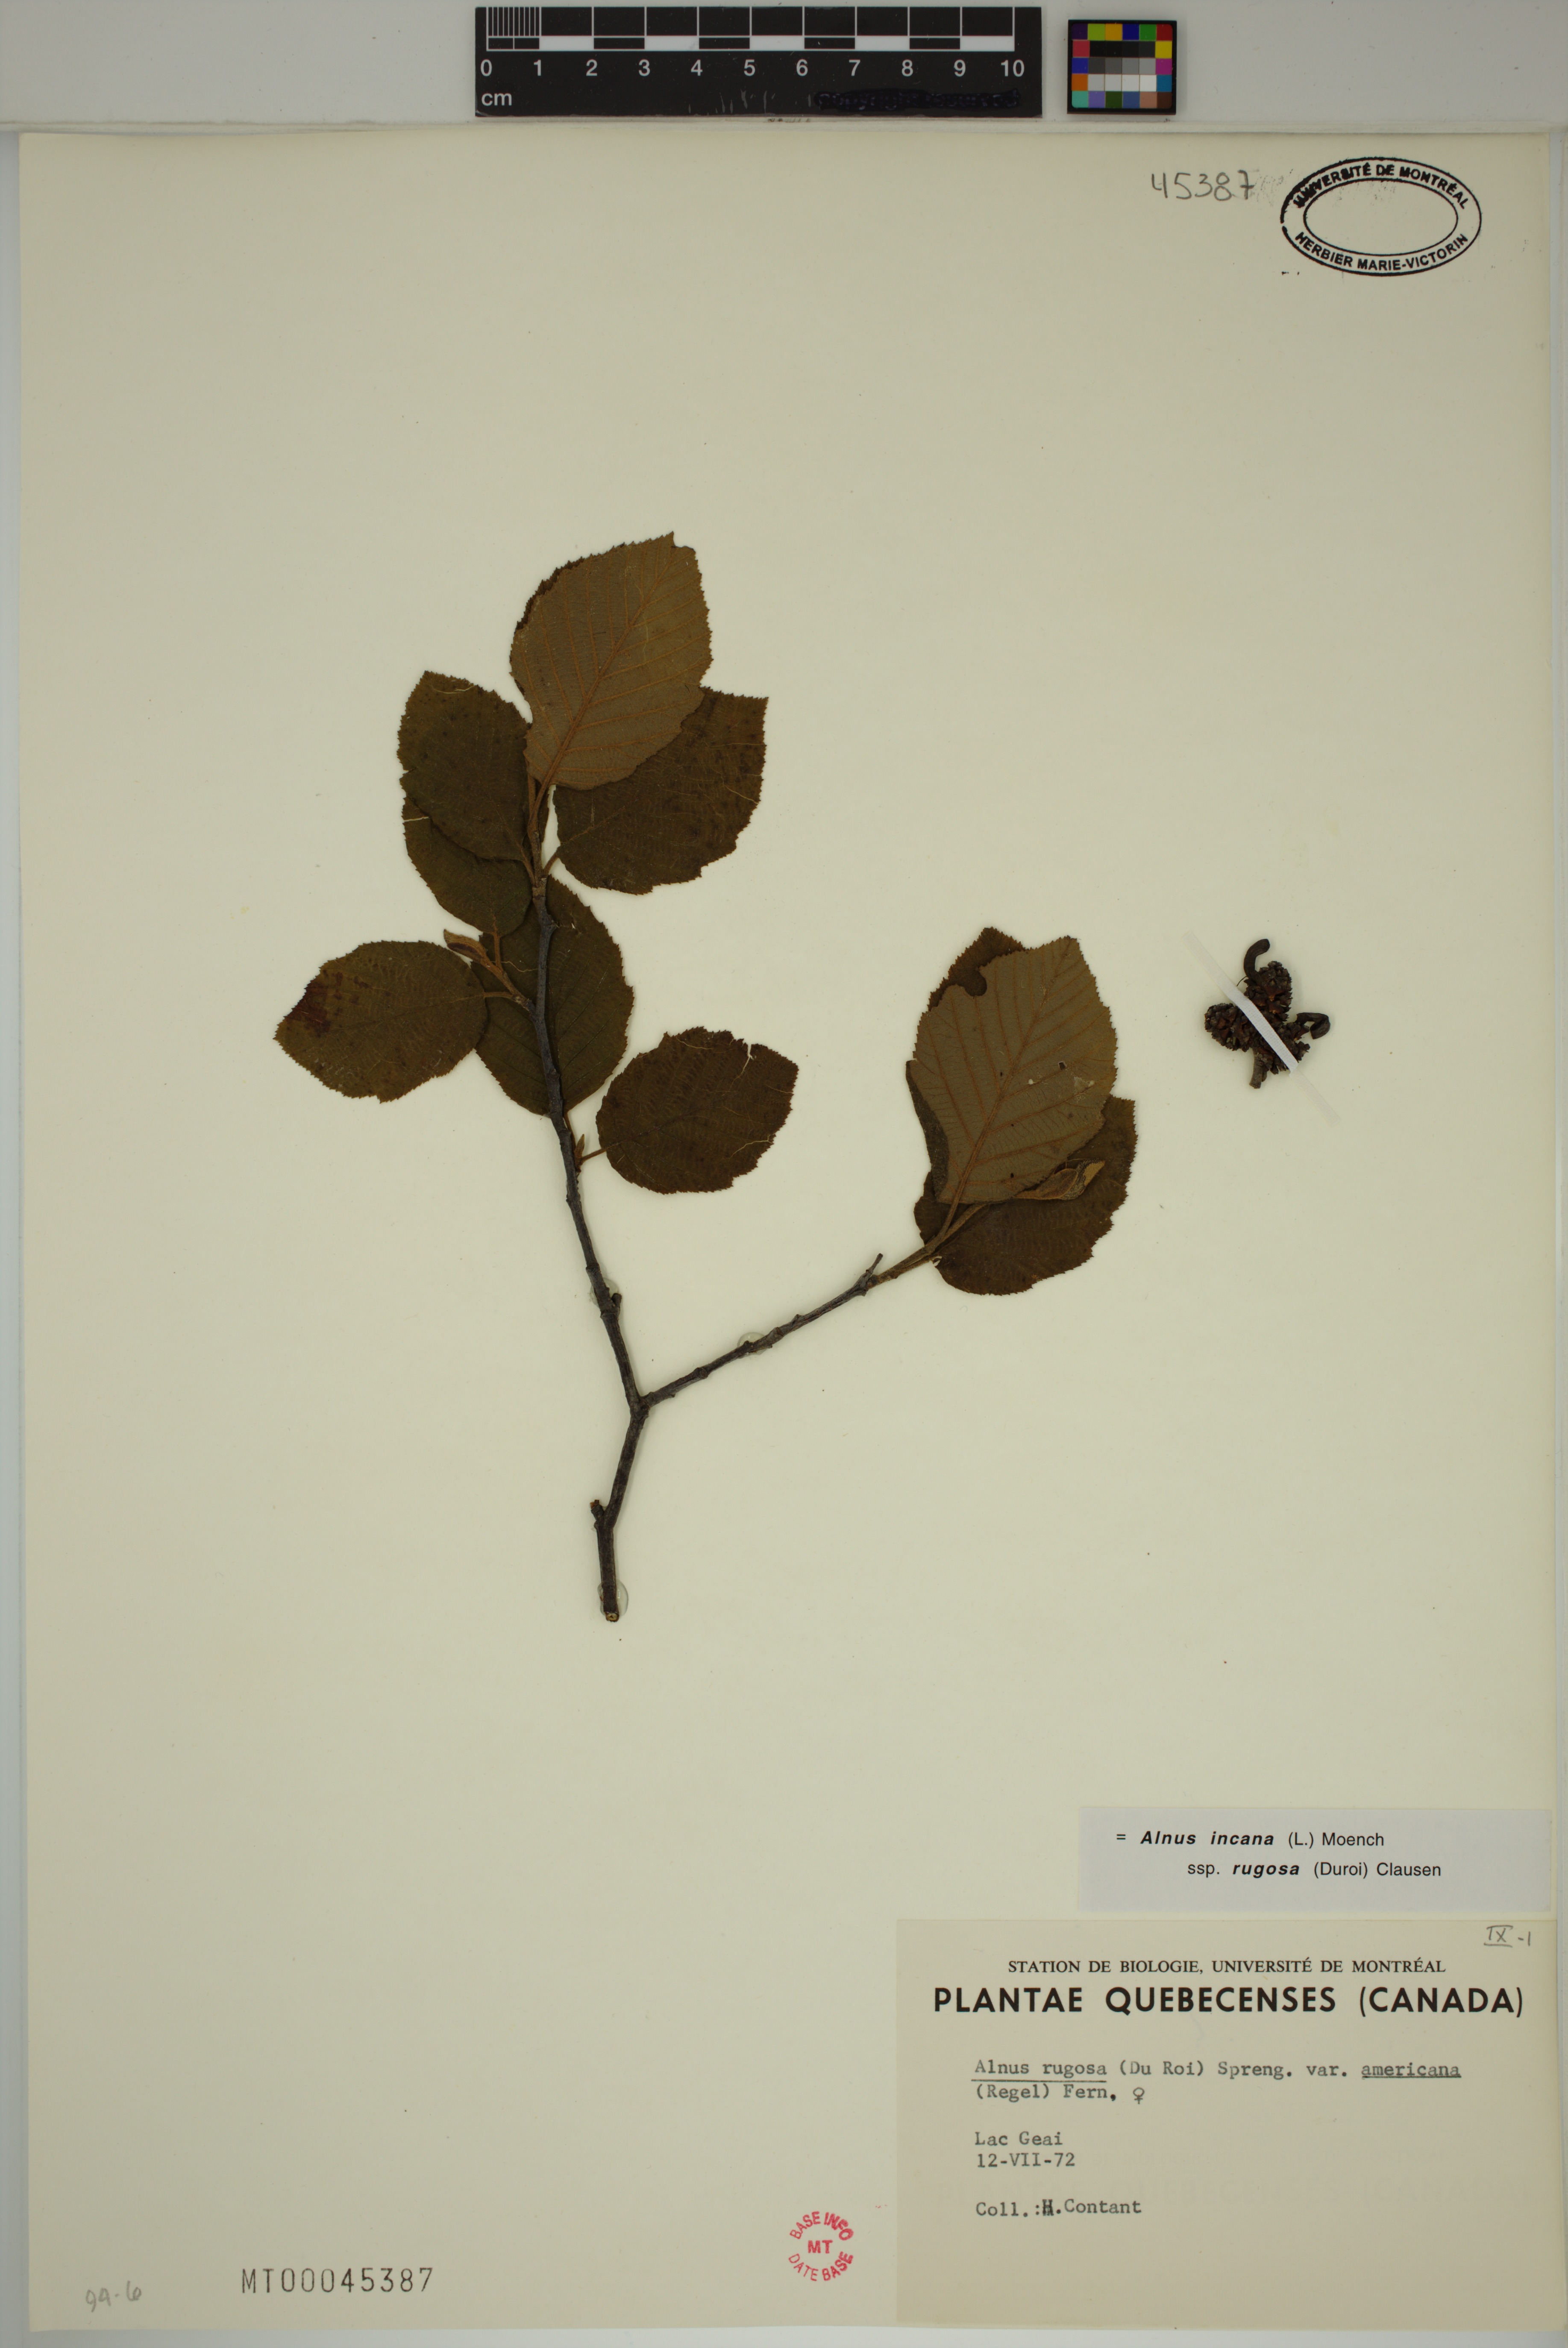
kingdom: Plantae
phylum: Tracheophyta
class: Magnoliopsida
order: Fagales
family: Betulaceae
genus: Alnus
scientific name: Alnus incana
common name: Grey alder
